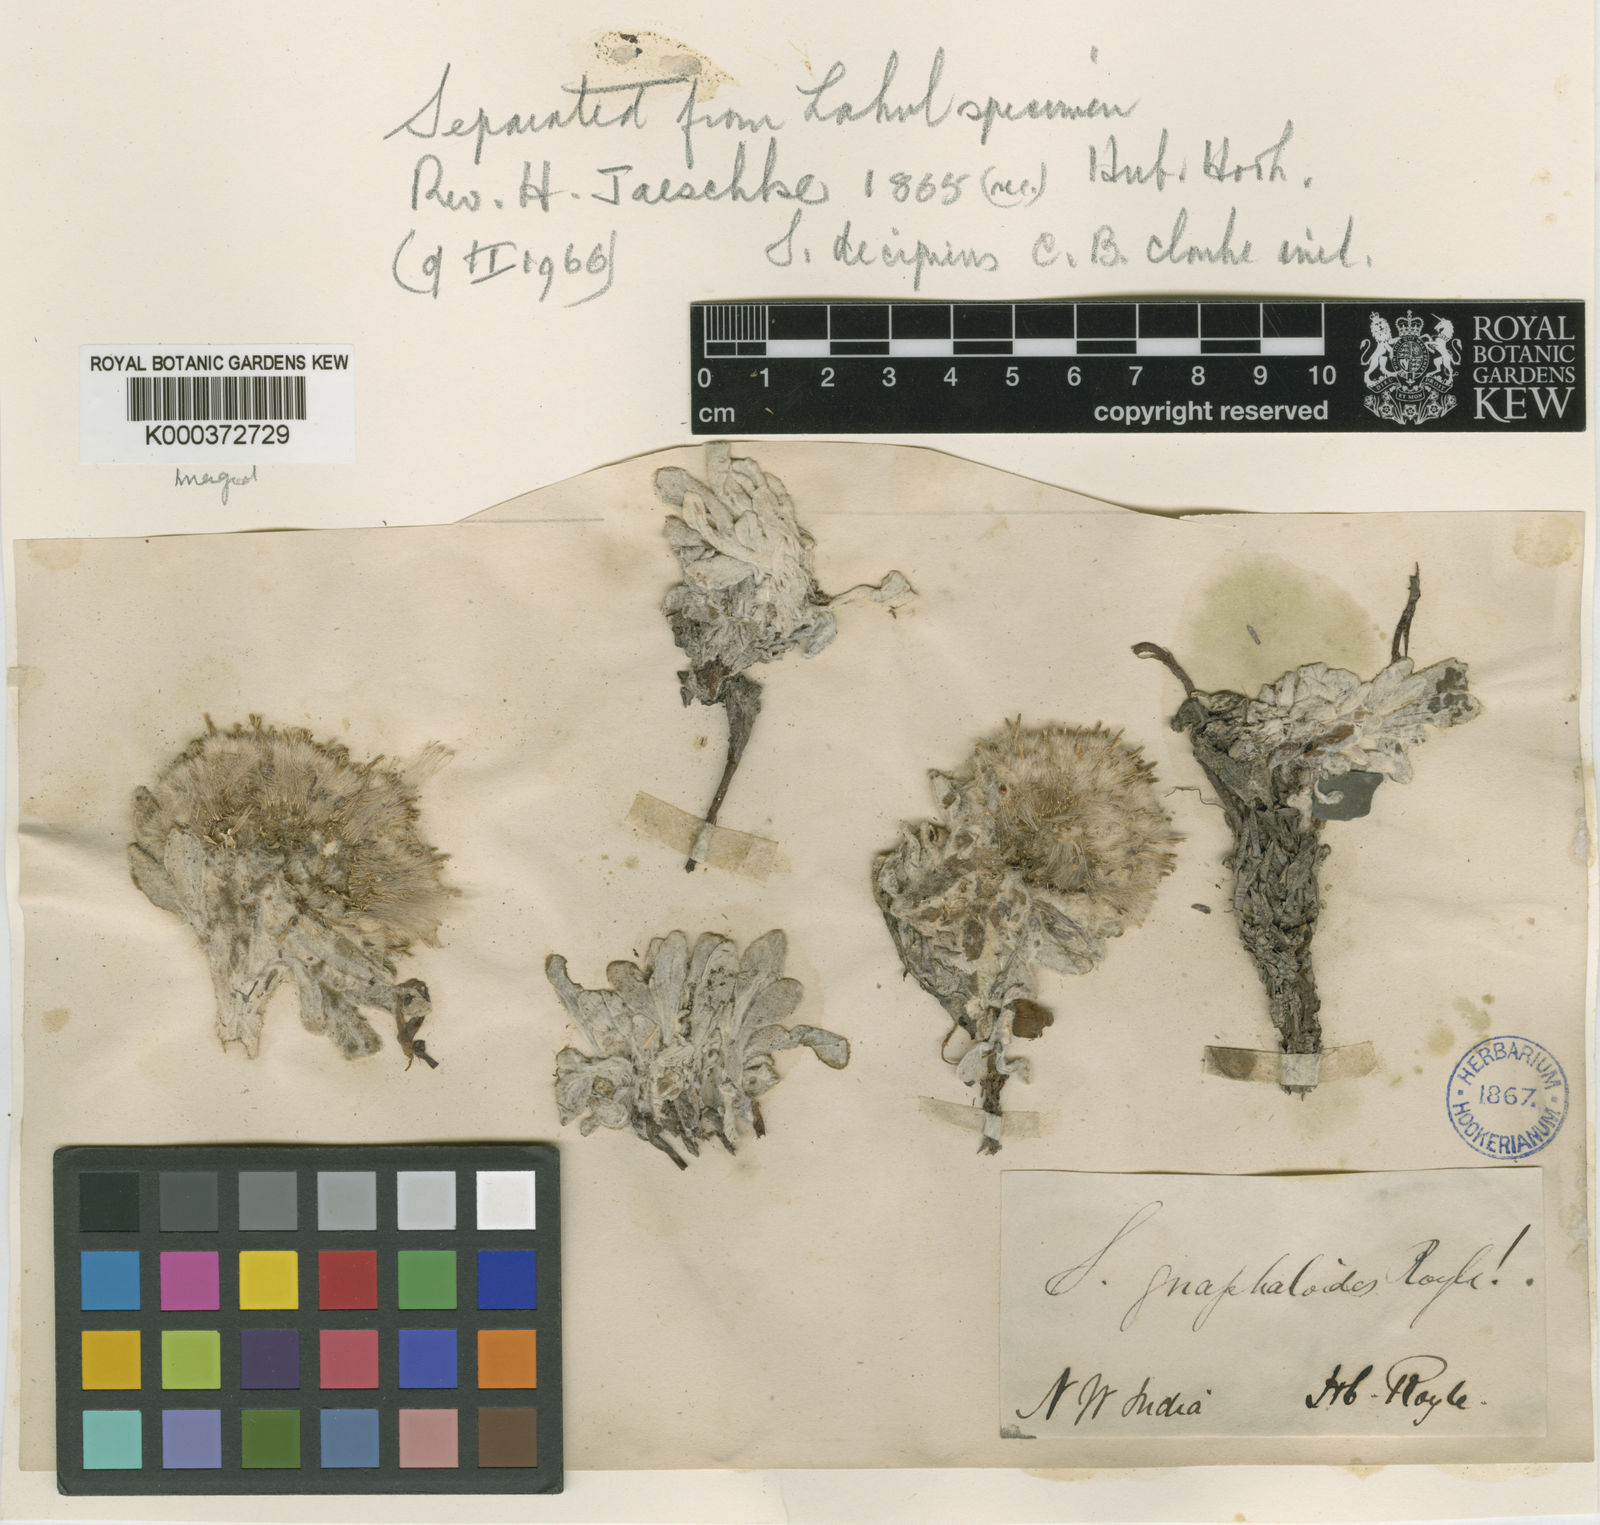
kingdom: Plantae
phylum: Tracheophyta
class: Magnoliopsida
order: Asterales
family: Asteraceae
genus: Saussurea
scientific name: Saussurea
